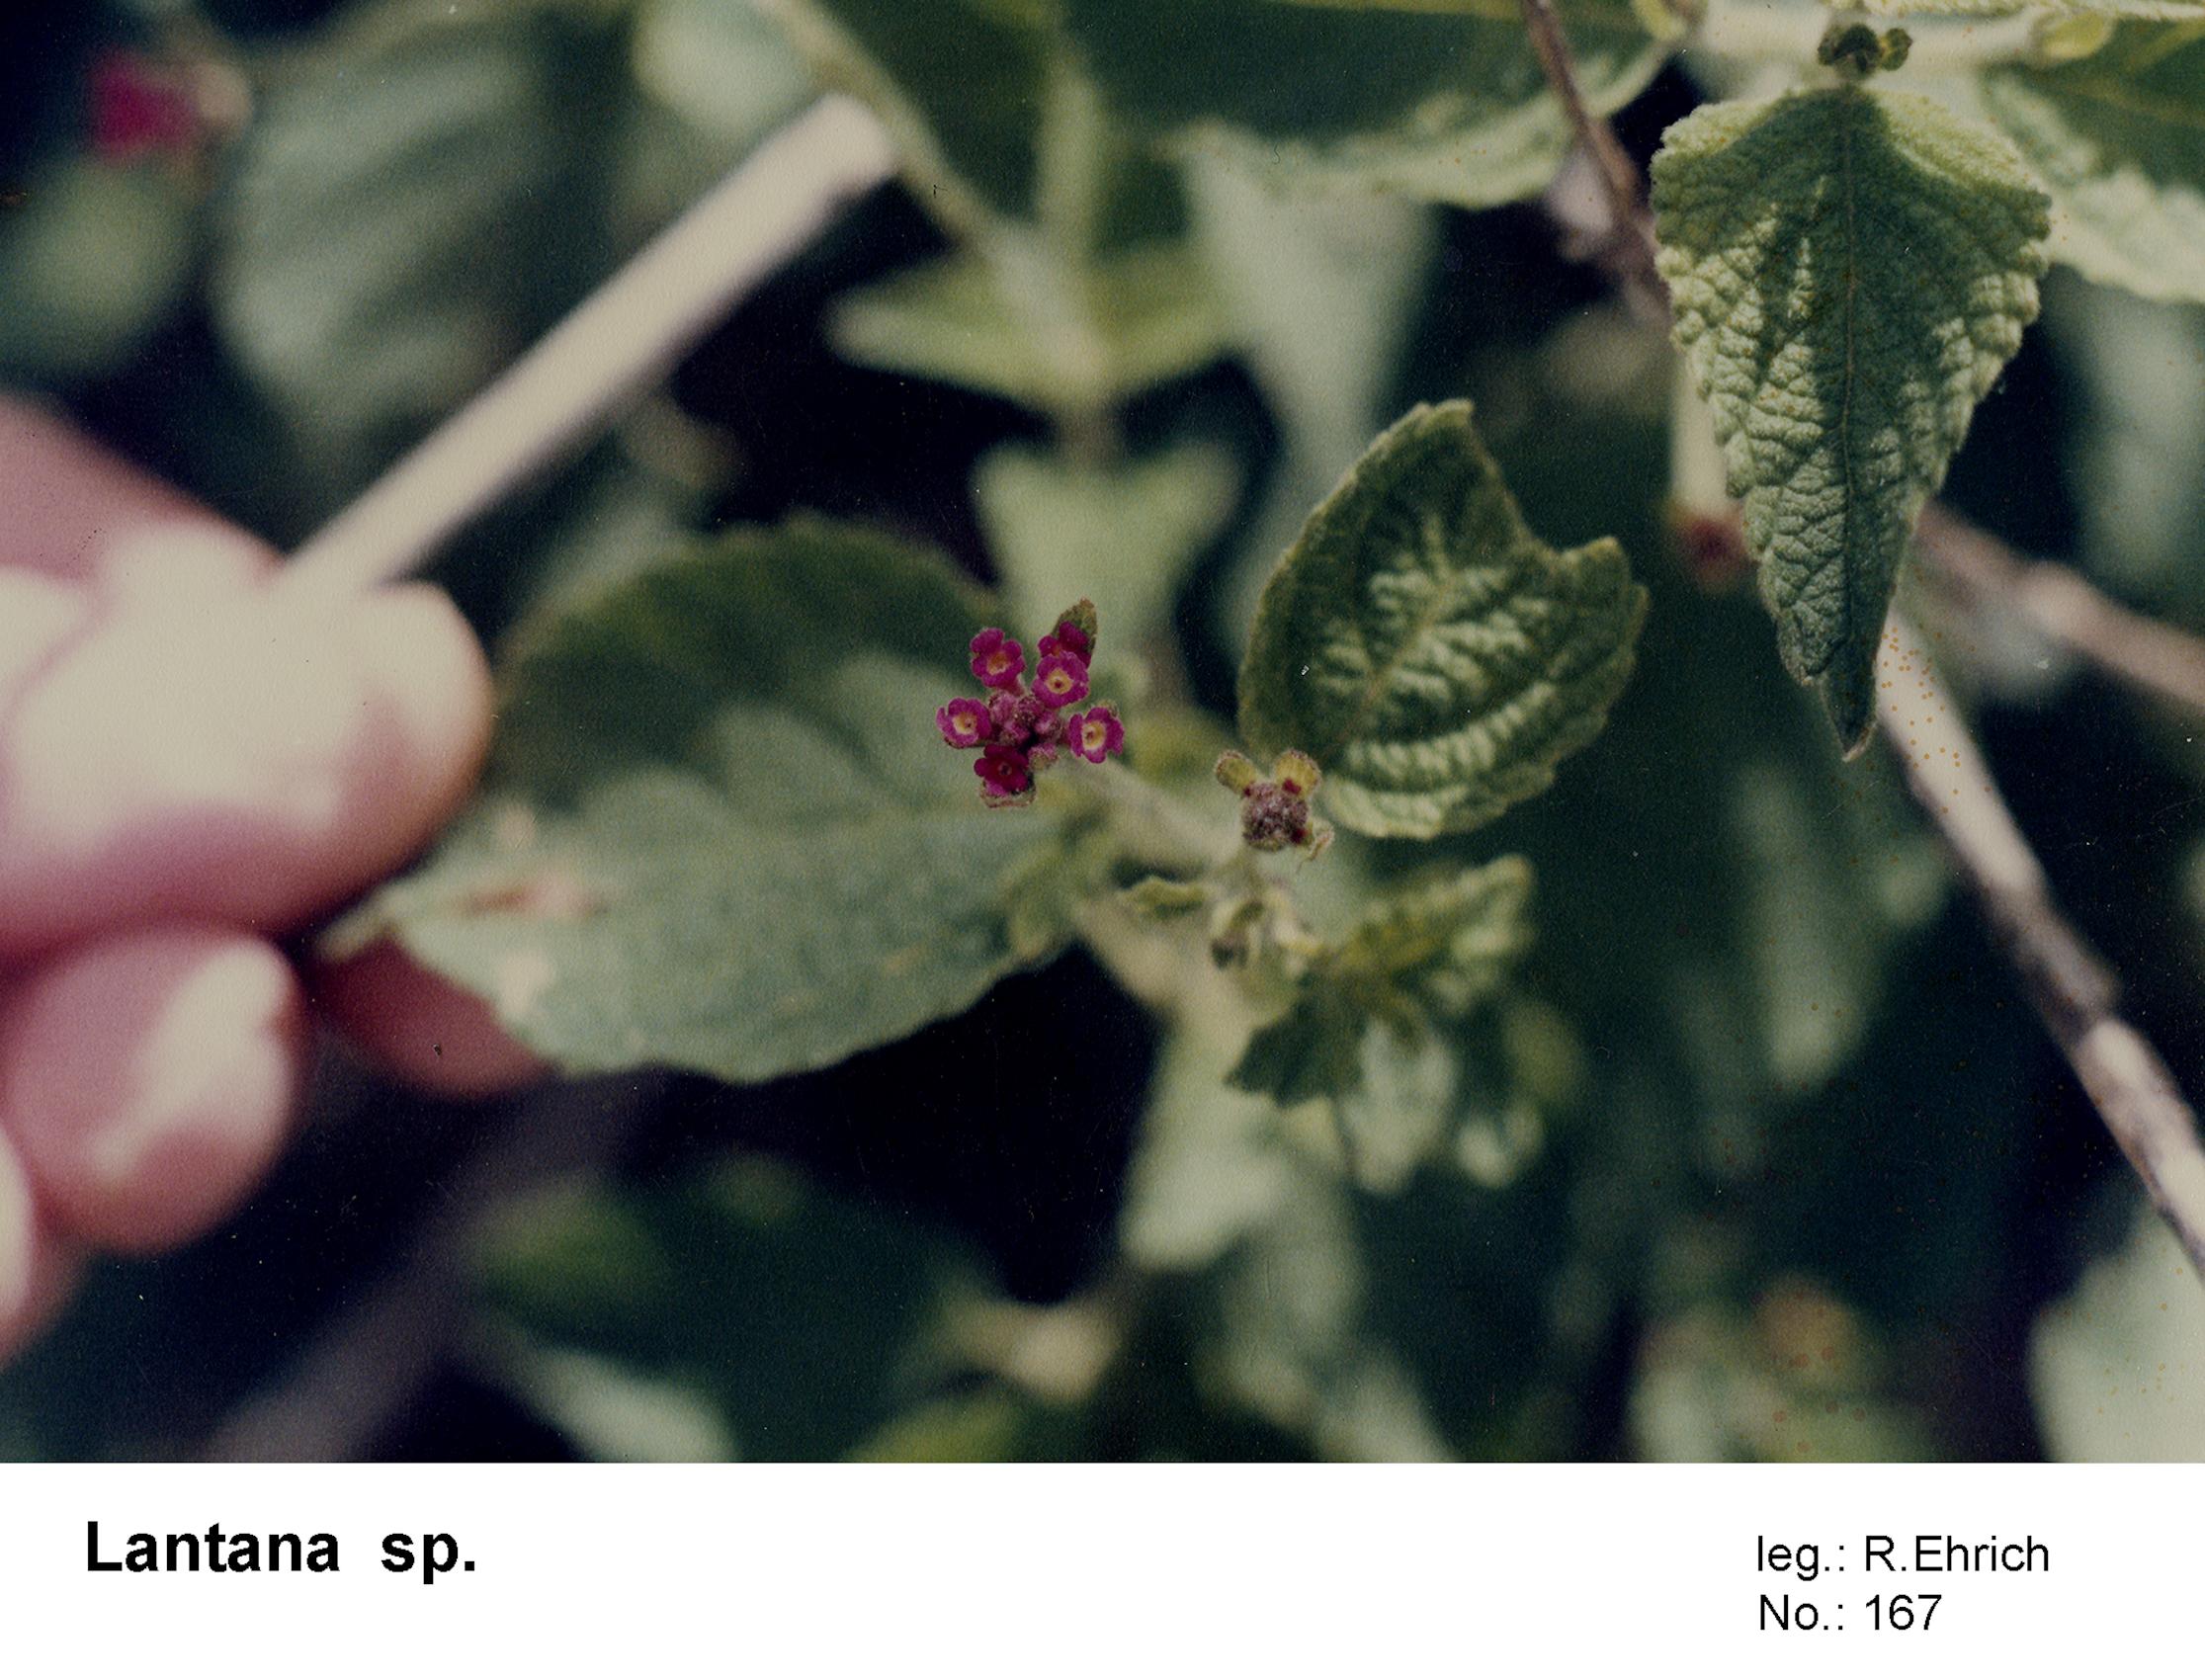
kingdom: Plantae
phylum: Tracheophyta
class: Magnoliopsida
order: Lamiales
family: Verbenaceae
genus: Lantana
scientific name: Lantana horrida
